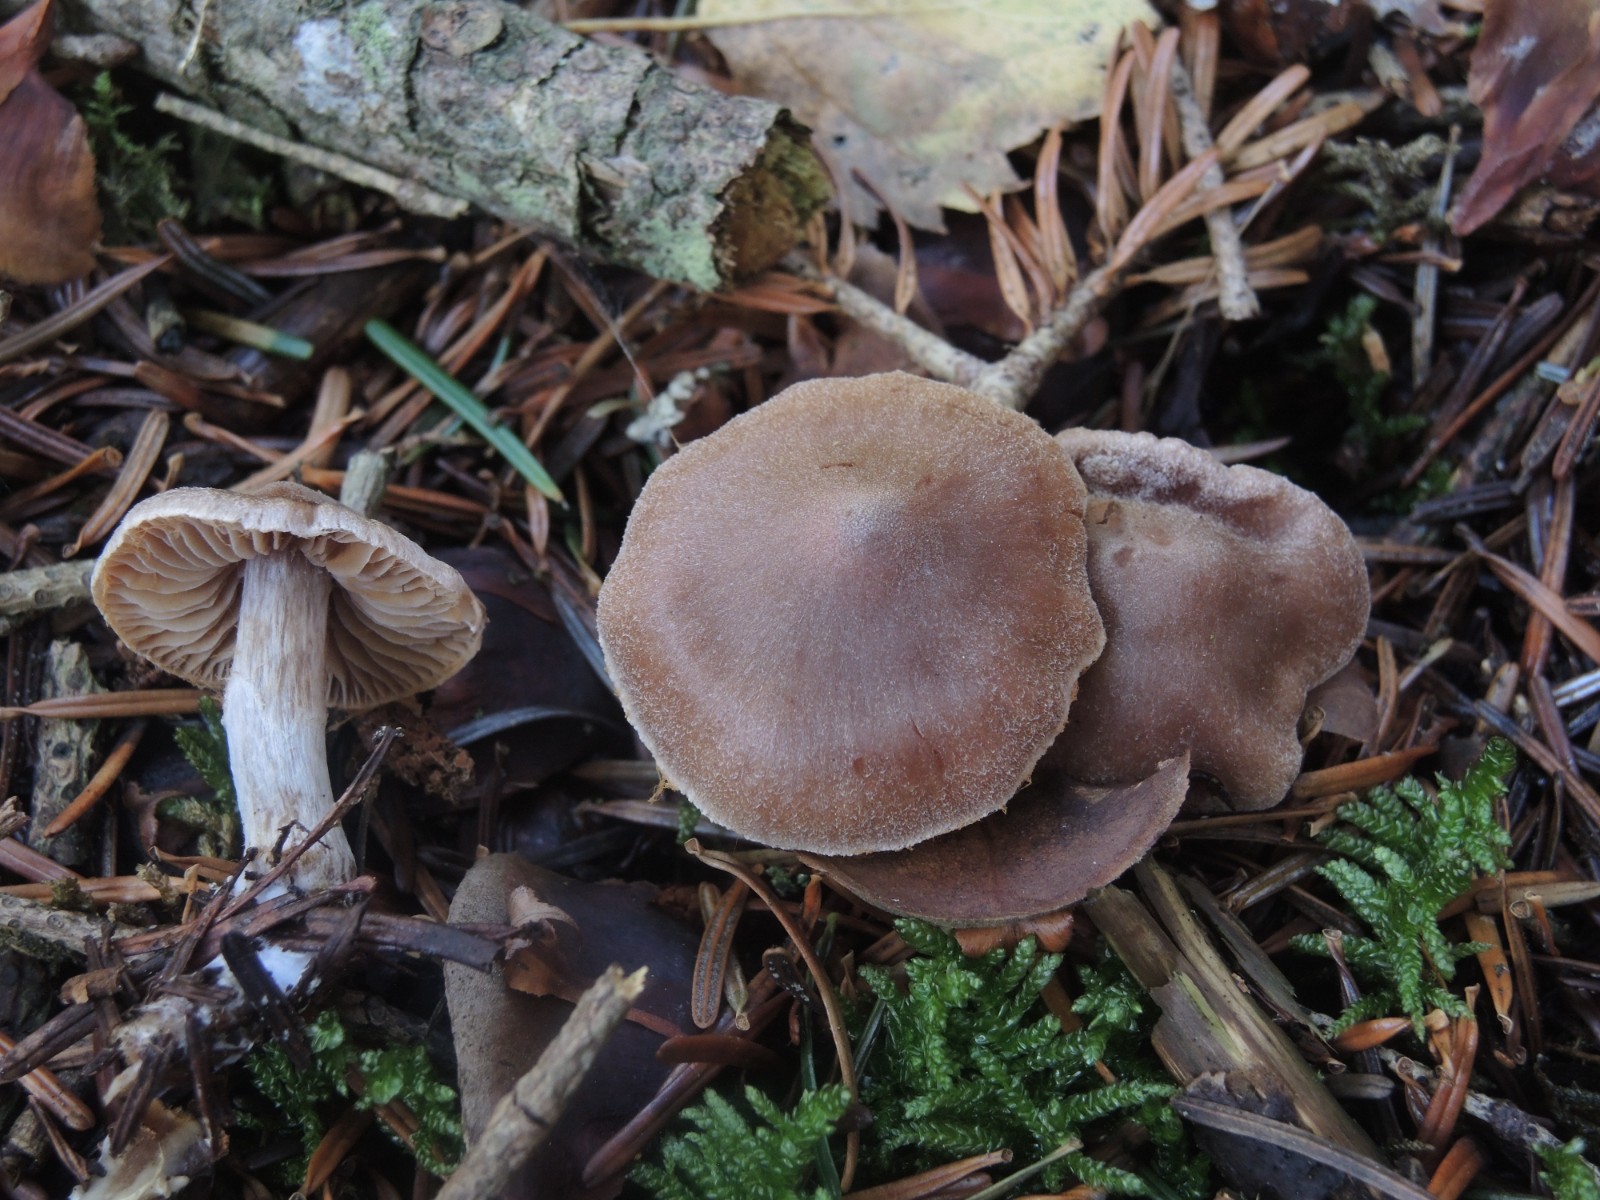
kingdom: Fungi
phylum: Basidiomycota
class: Agaricomycetes
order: Agaricales
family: Cortinariaceae
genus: Cortinarius
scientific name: Cortinarius comptulus
